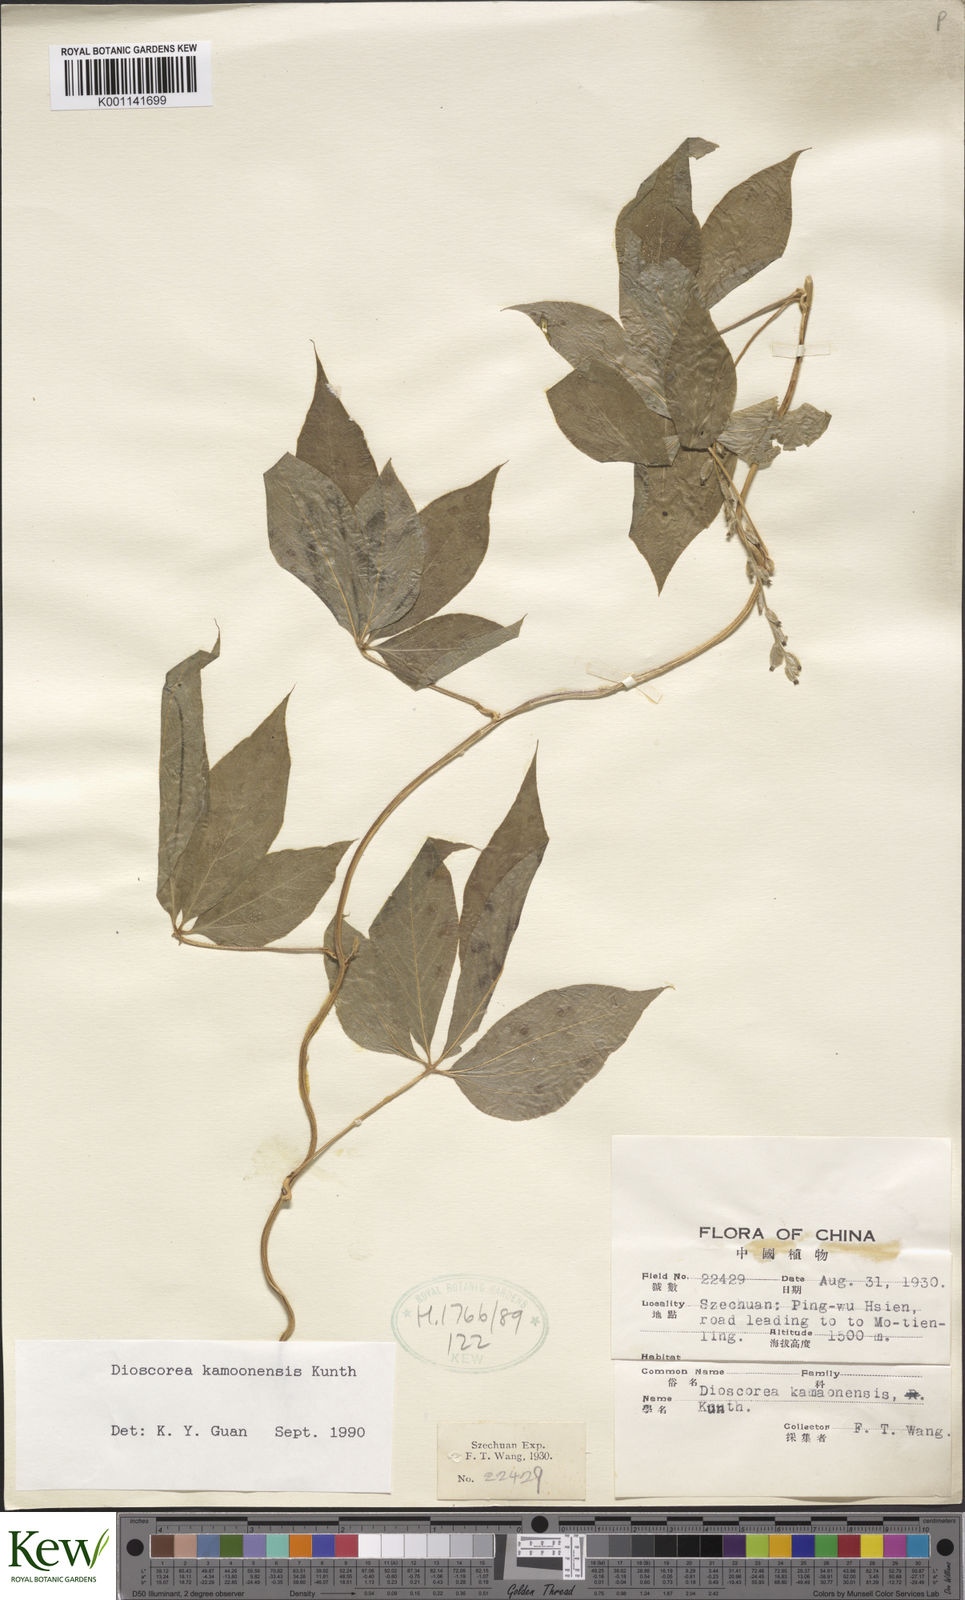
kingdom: Plantae
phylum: Tracheophyta
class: Liliopsida
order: Dioscoreales
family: Dioscoreaceae
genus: Dioscorea
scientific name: Dioscorea kamoonensis
